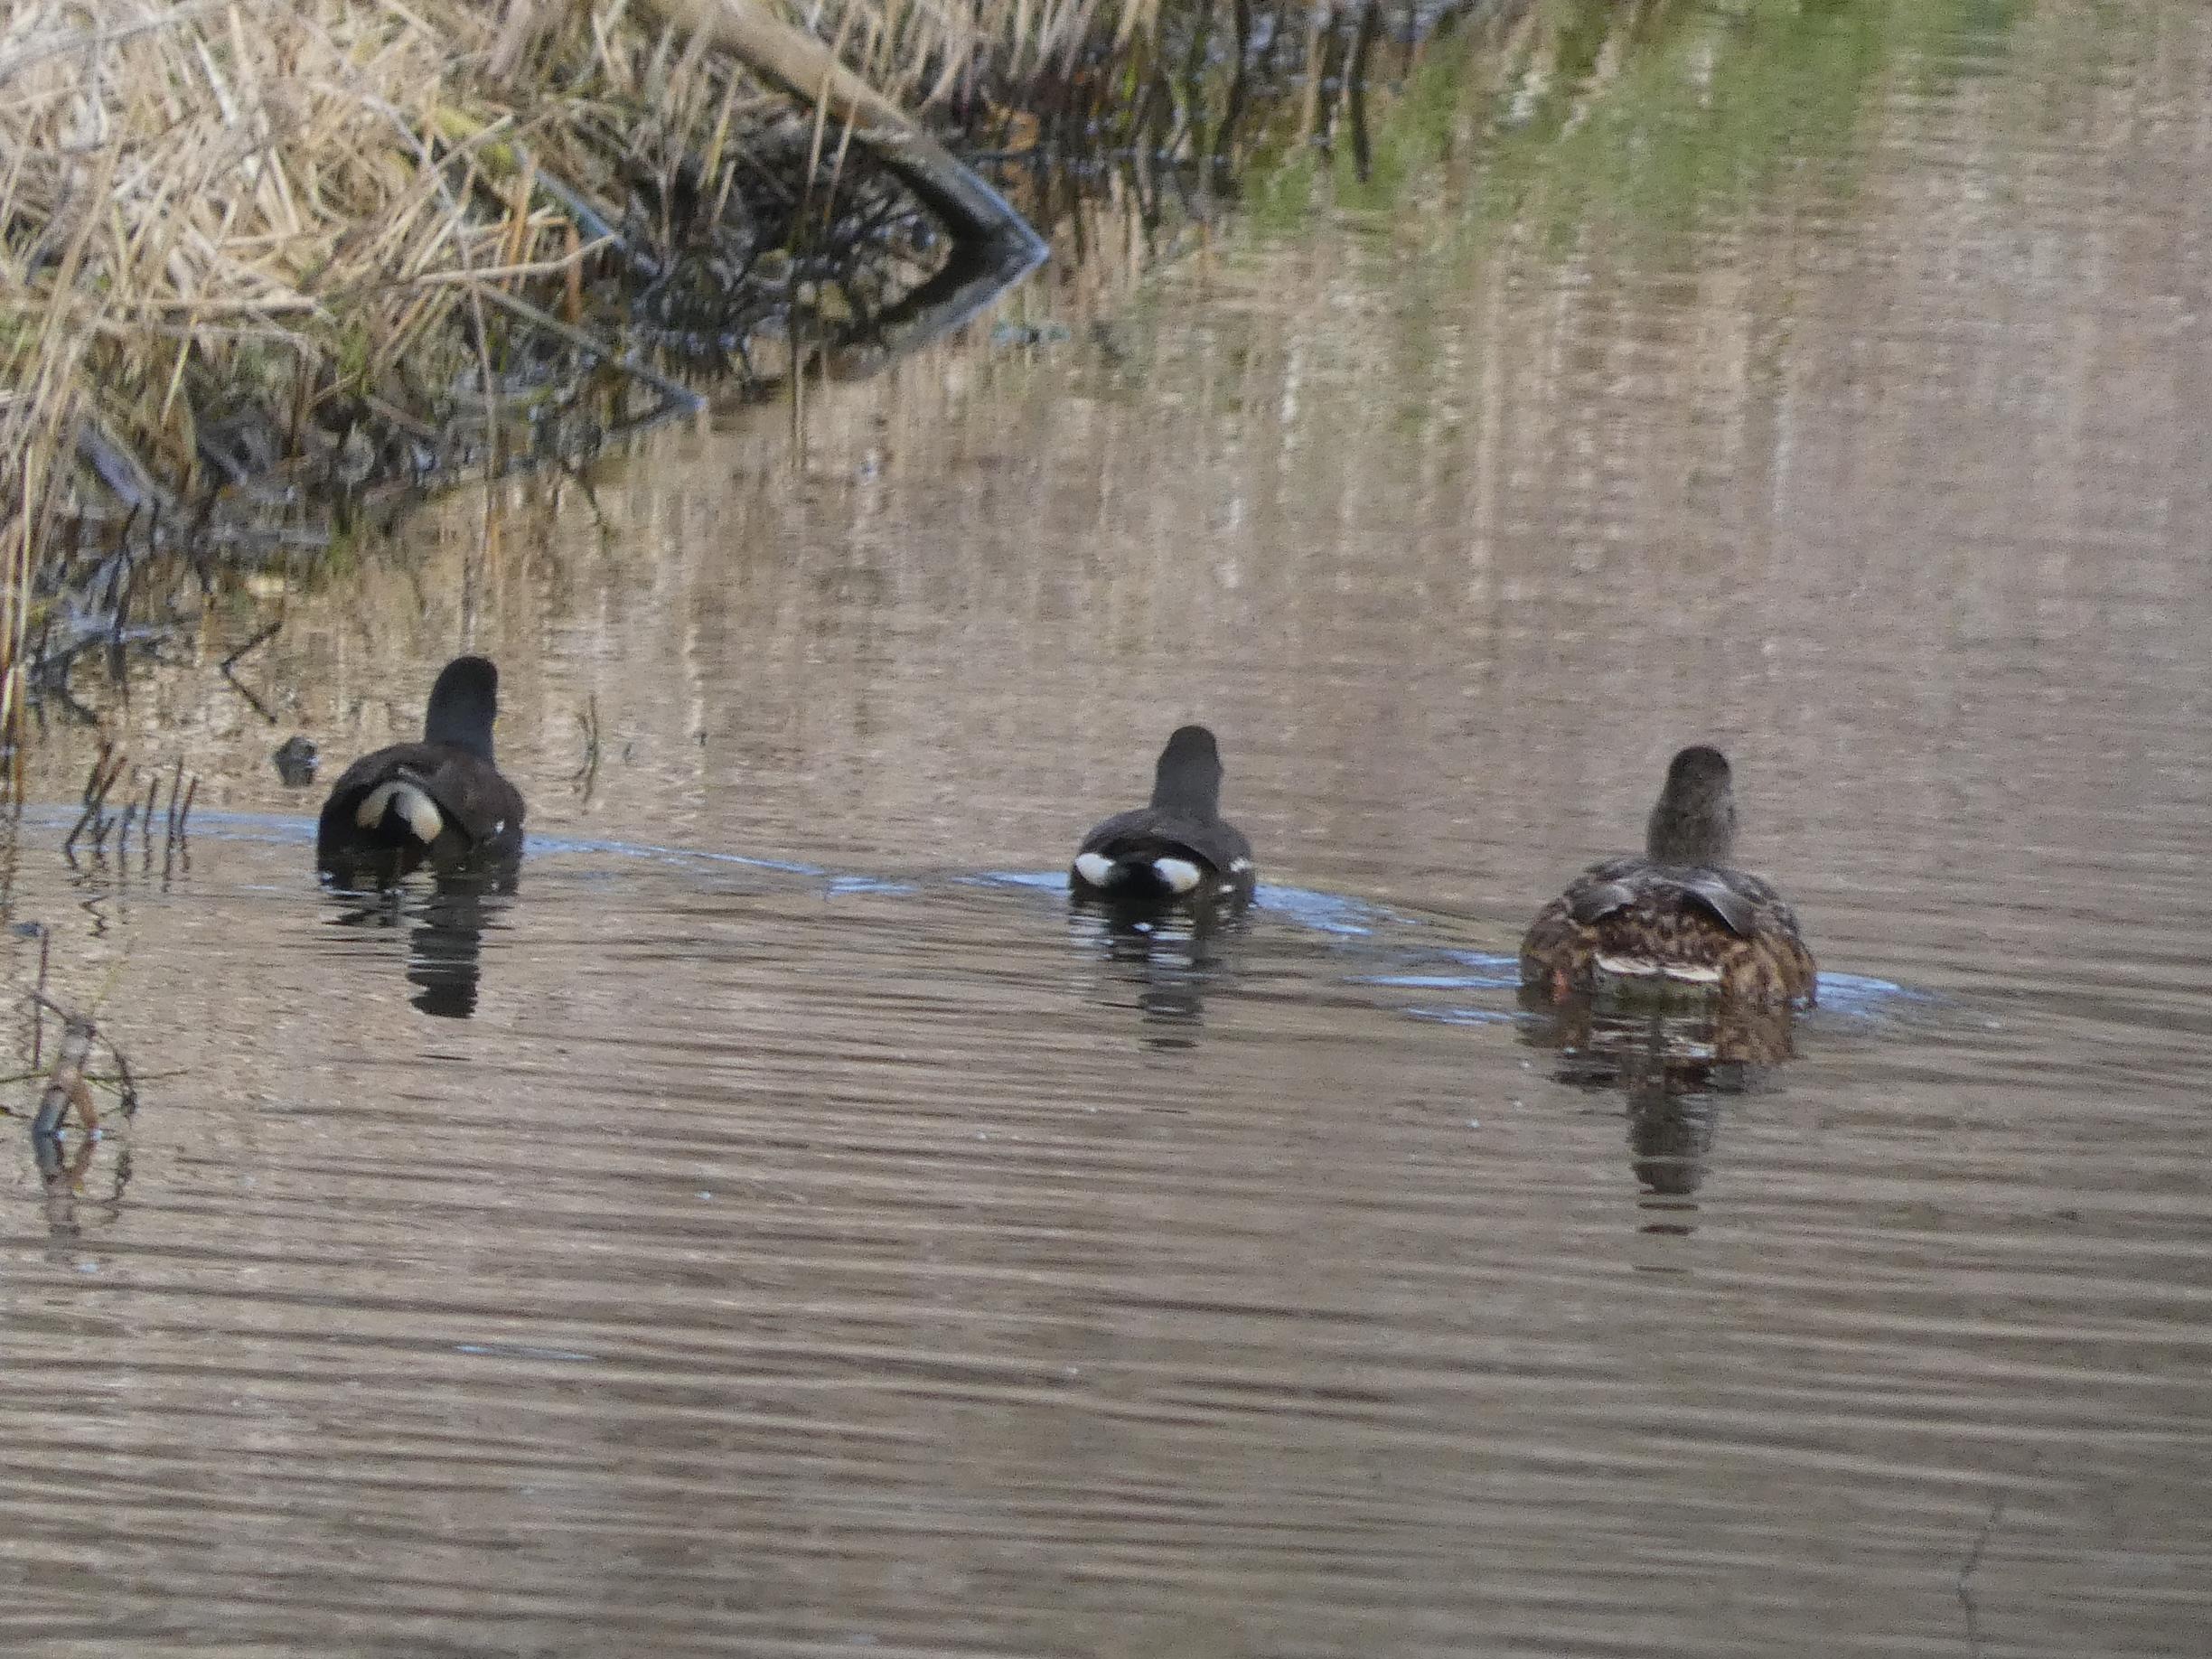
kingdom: Animalia
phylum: Chordata
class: Aves
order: Anseriformes
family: Anatidae
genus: Anas
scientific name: Anas platyrhynchos
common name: Gråand
